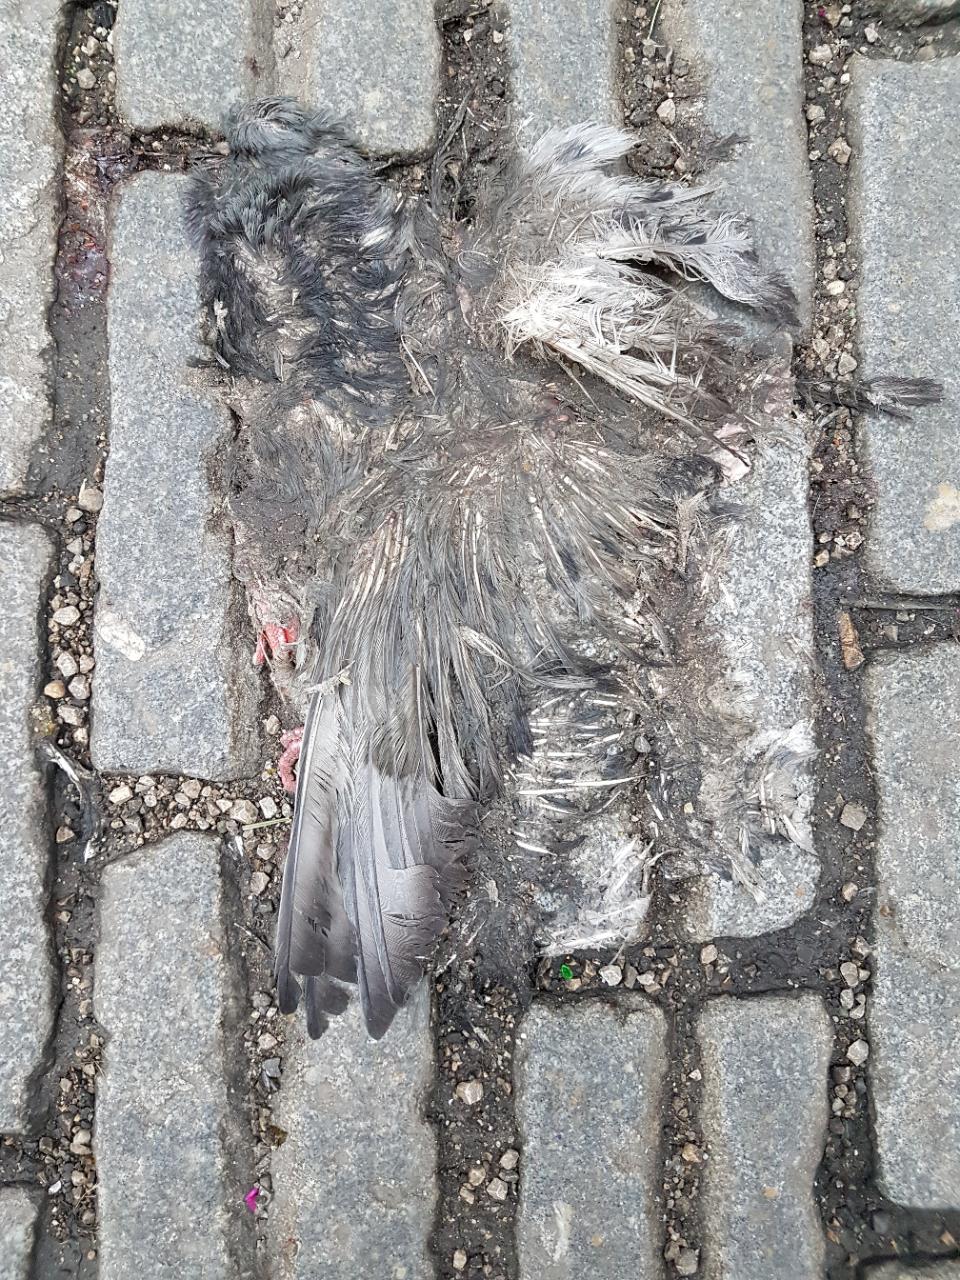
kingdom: Animalia
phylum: Chordata
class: Aves
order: Columbiformes
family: Columbidae
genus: Columba
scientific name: Columba livia
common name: Rock pigeon
